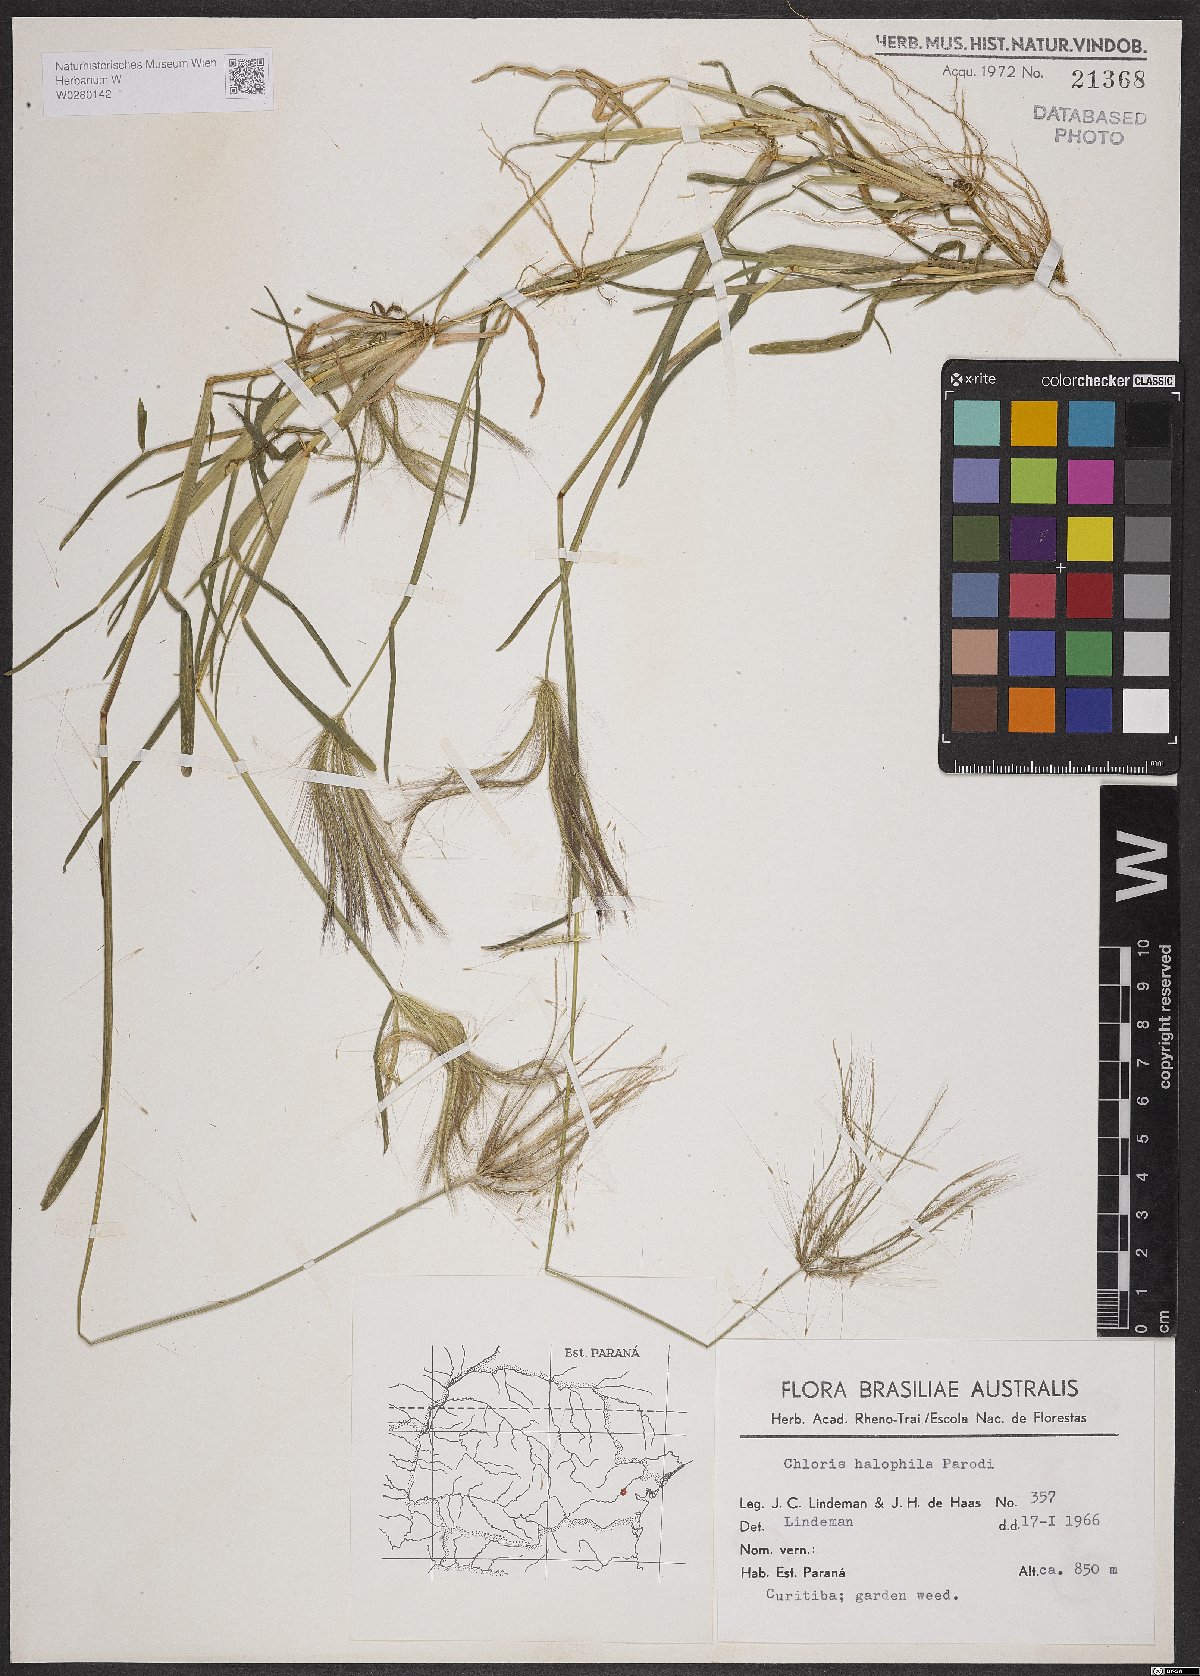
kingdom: Plantae
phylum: Tracheophyta
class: Liliopsida
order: Poales
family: Poaceae
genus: Chloris
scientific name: Chloris halophila
